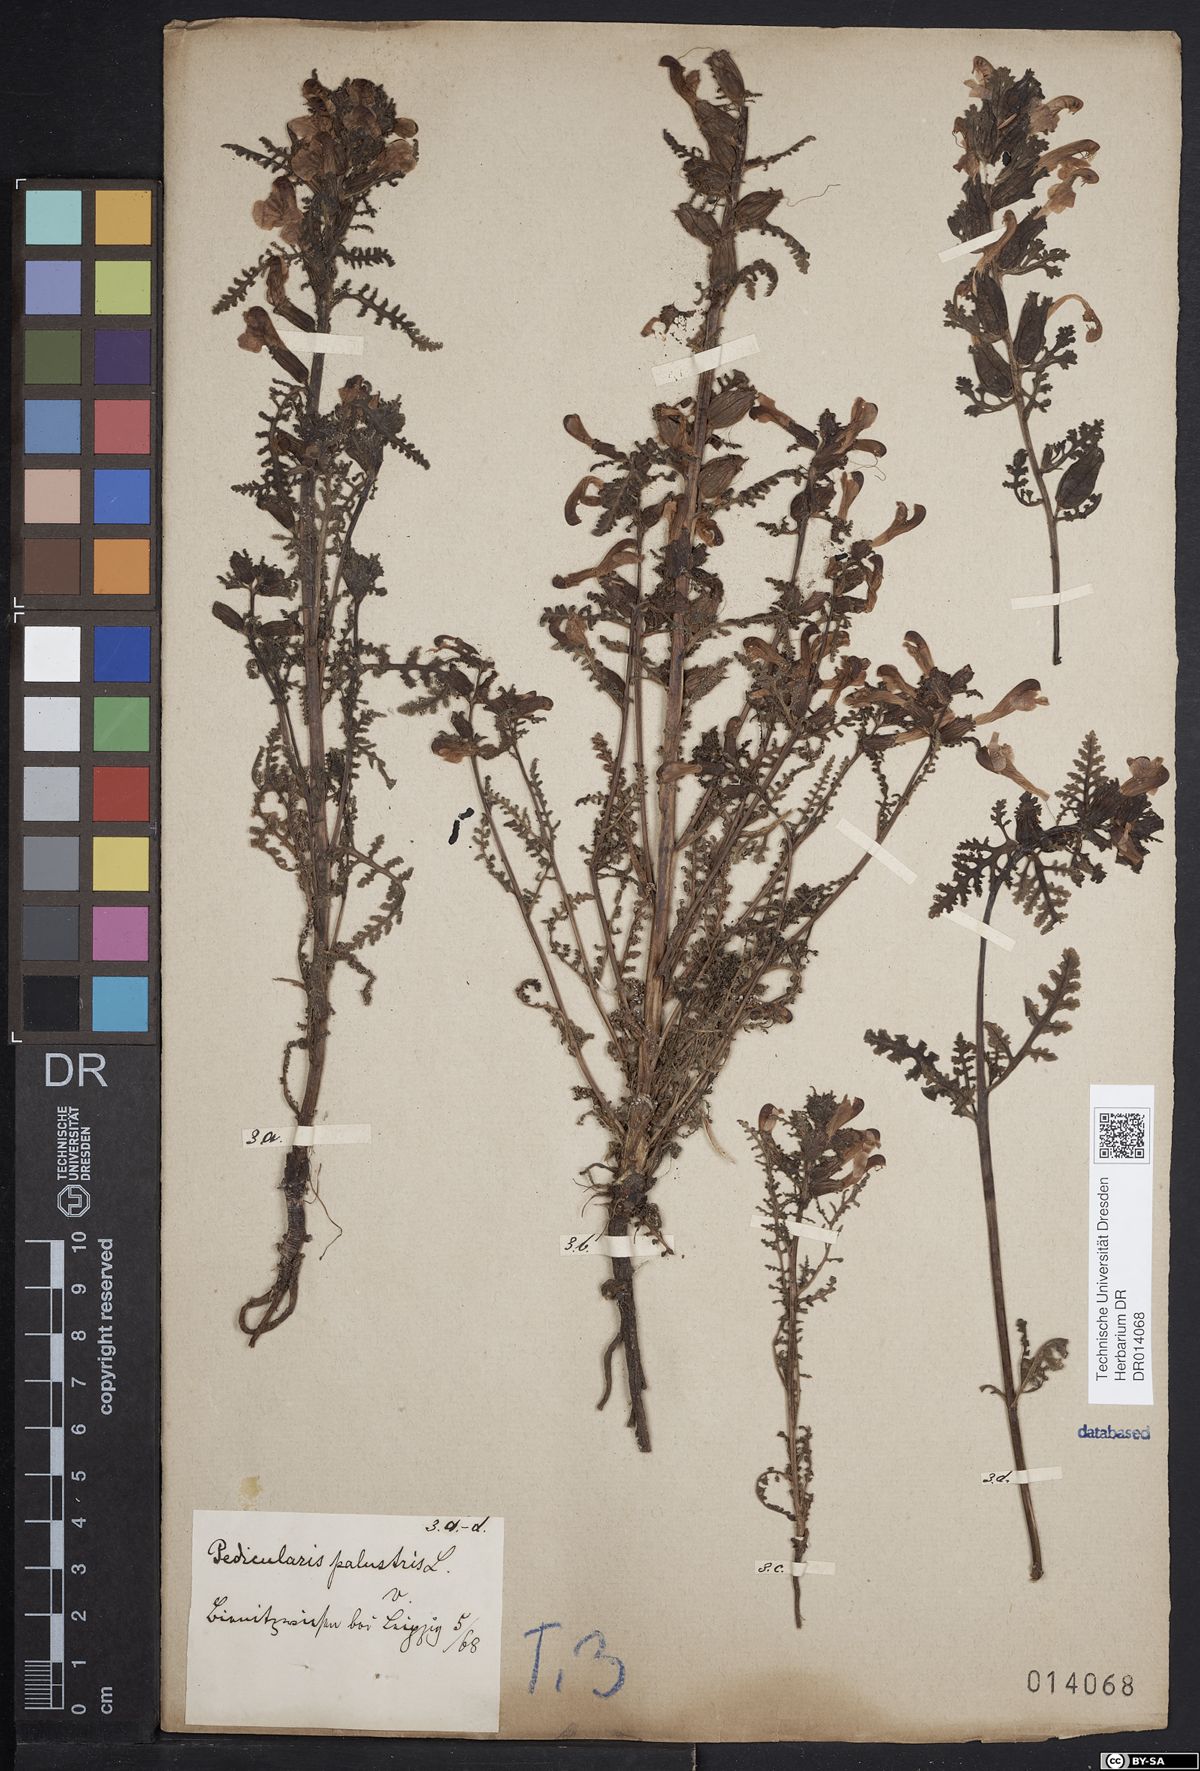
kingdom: Plantae
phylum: Tracheophyta
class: Magnoliopsida
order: Lamiales
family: Orobanchaceae
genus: Pedicularis
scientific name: Pedicularis palustris
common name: Marsh lousewort
